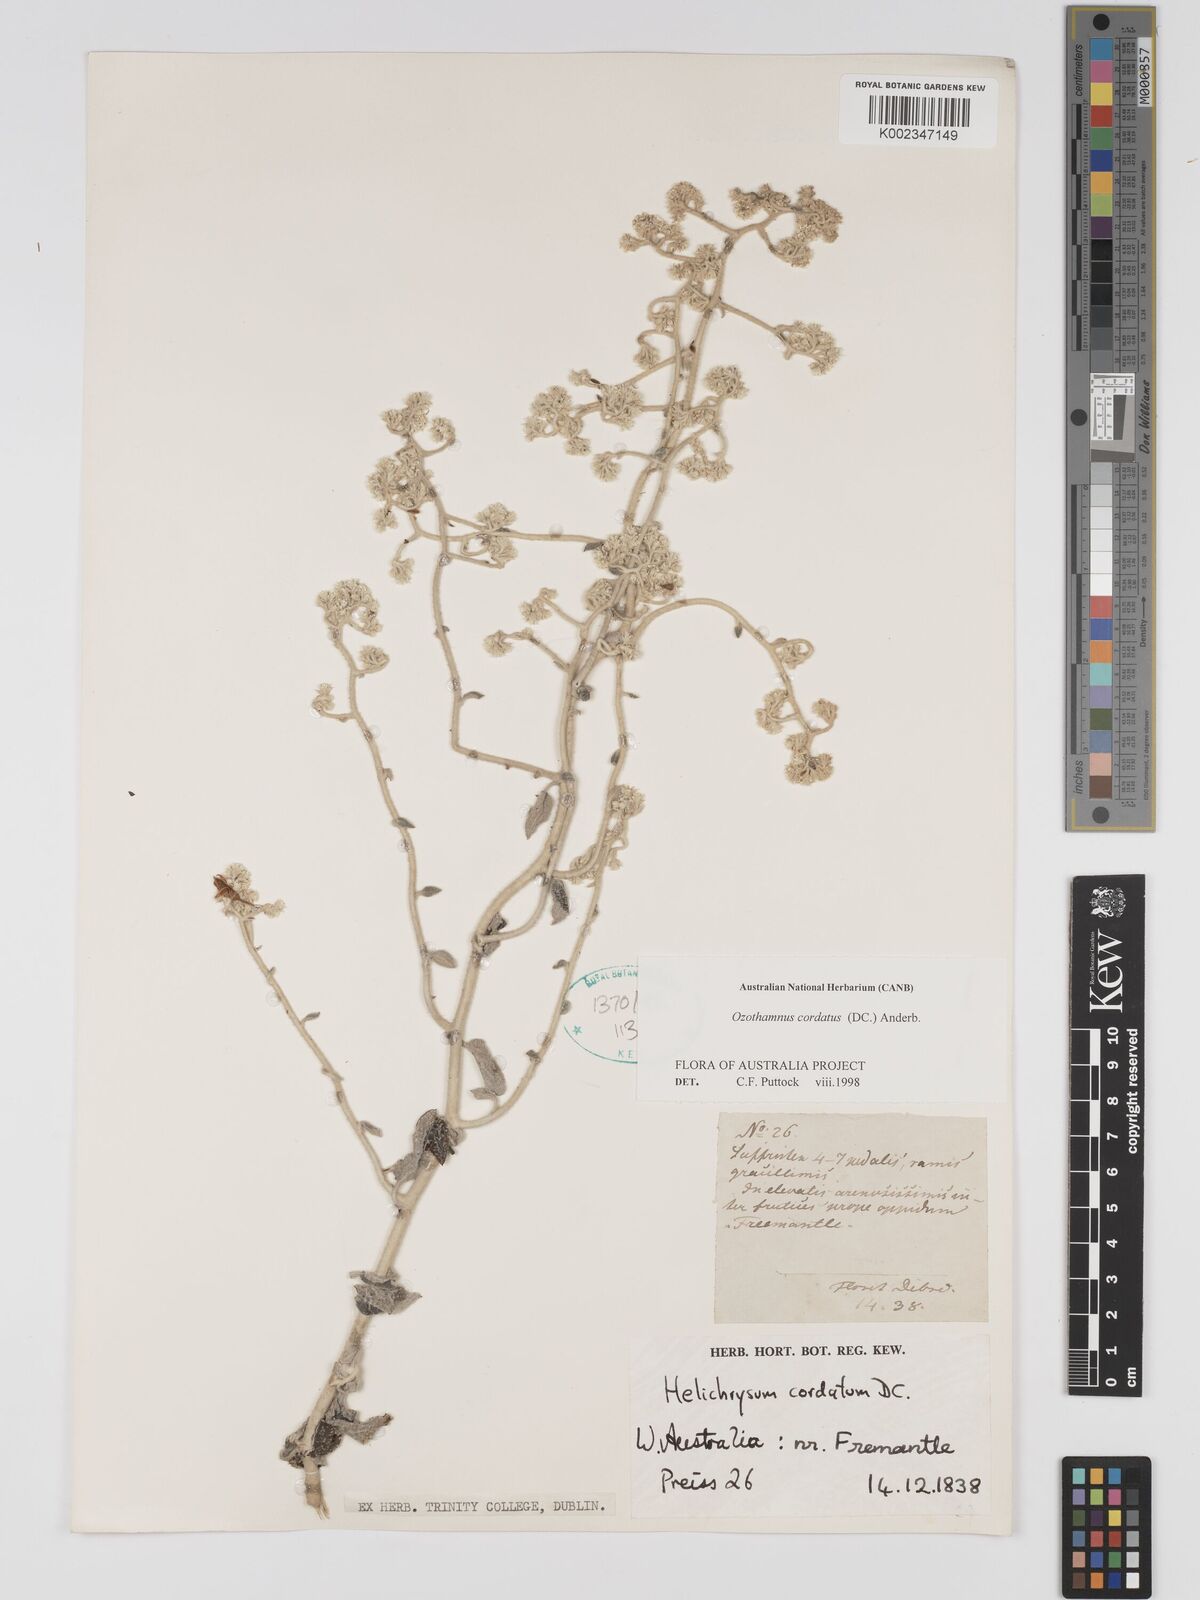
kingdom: Plantae
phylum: Tracheophyta
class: Magnoliopsida
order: Asterales
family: Asteraceae
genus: Ozothamnus
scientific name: Ozothamnus
